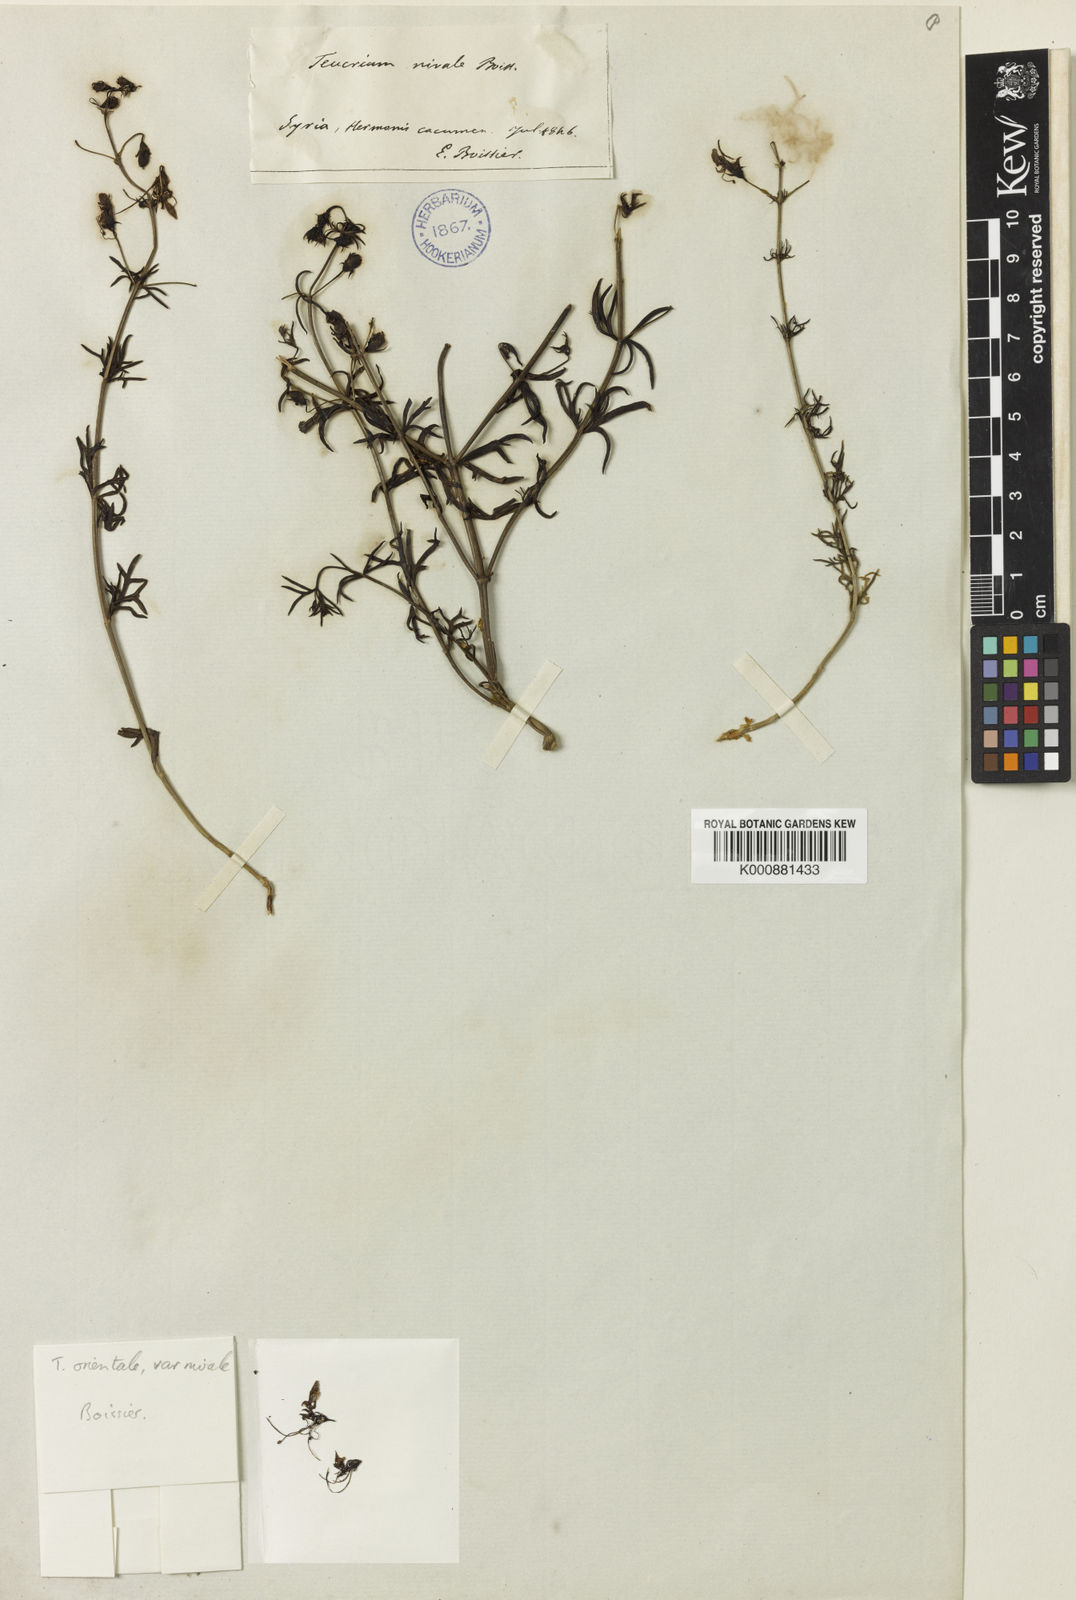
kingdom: Plantae
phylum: Tracheophyta
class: Magnoliopsida
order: Lamiales
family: Lamiaceae
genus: Teucrium
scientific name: Teucrium orientale
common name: Oriental germander
